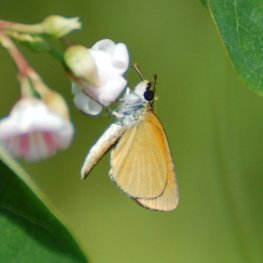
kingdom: Animalia
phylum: Arthropoda
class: Insecta
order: Lepidoptera
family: Hesperiidae
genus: Ancyloxypha
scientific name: Ancyloxypha numitor
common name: Least Skipper
